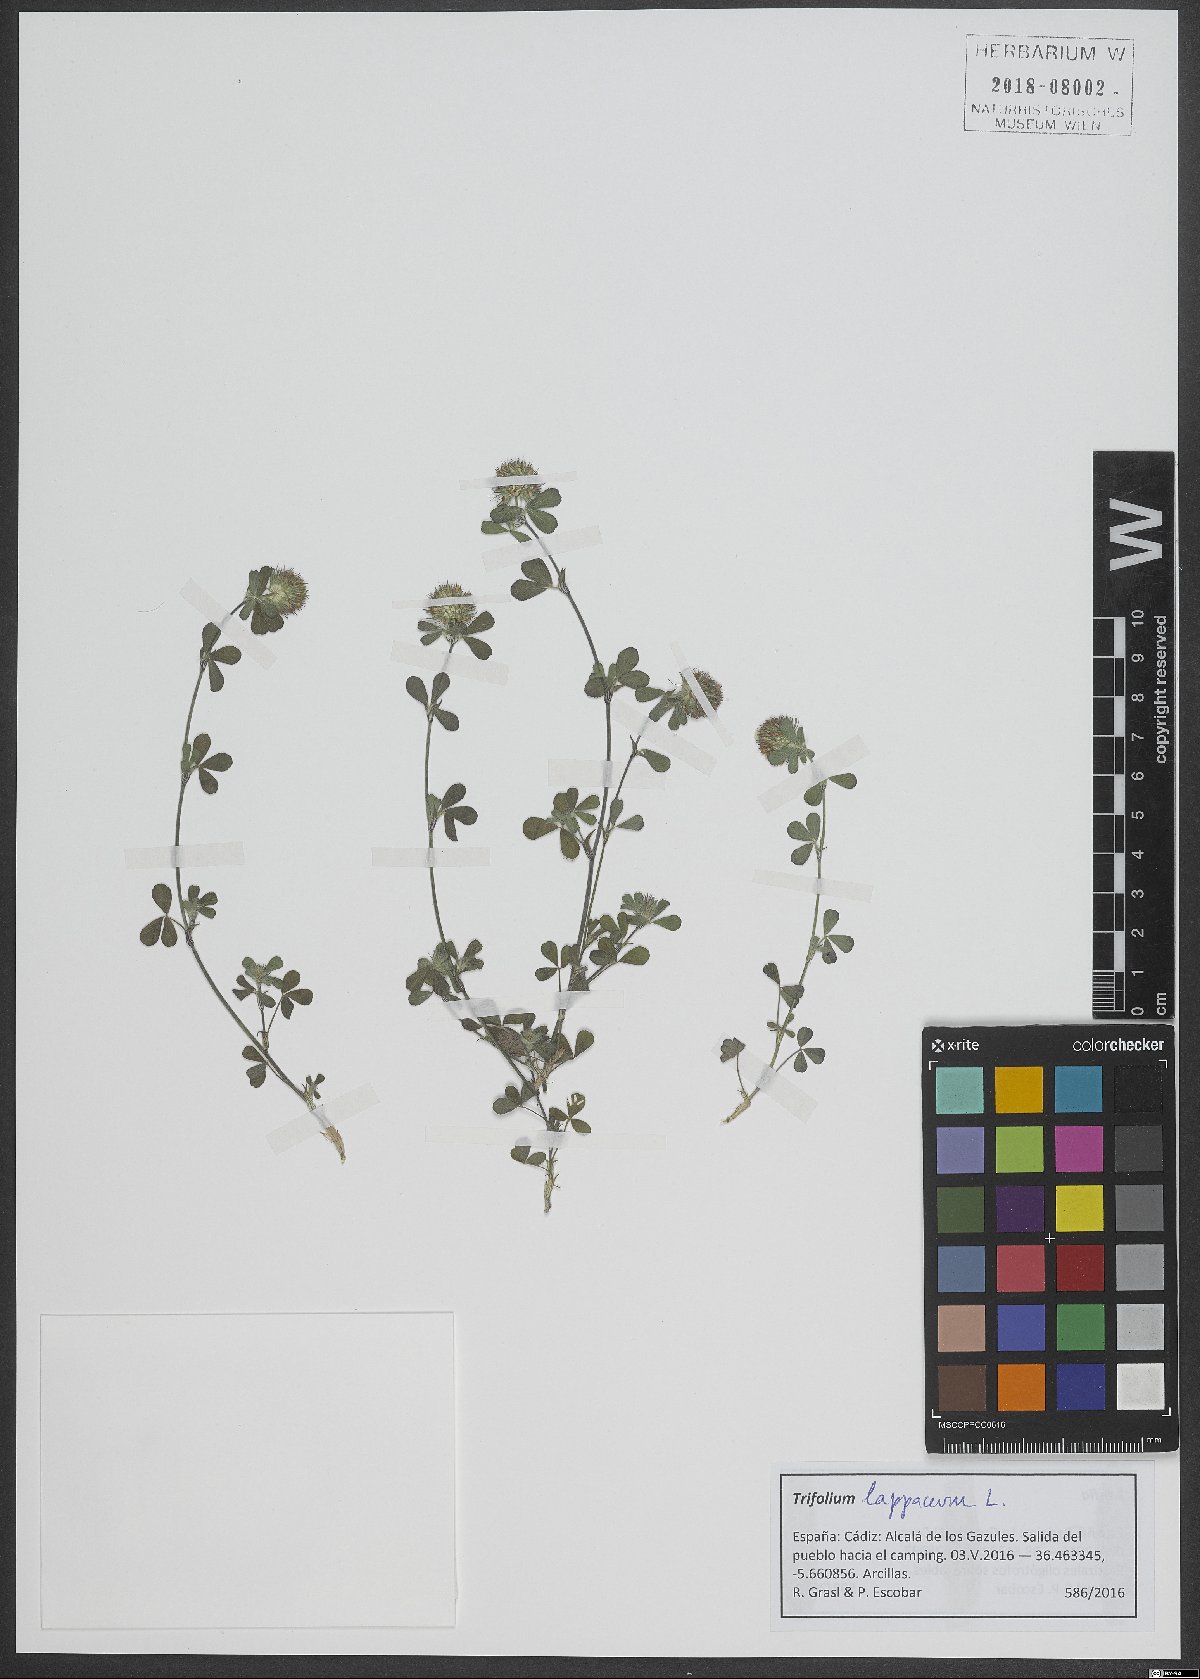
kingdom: Plantae
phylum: Tracheophyta
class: Magnoliopsida
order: Fabales
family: Fabaceae
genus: Trifolium
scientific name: Trifolium lappaceum
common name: Bur clover
